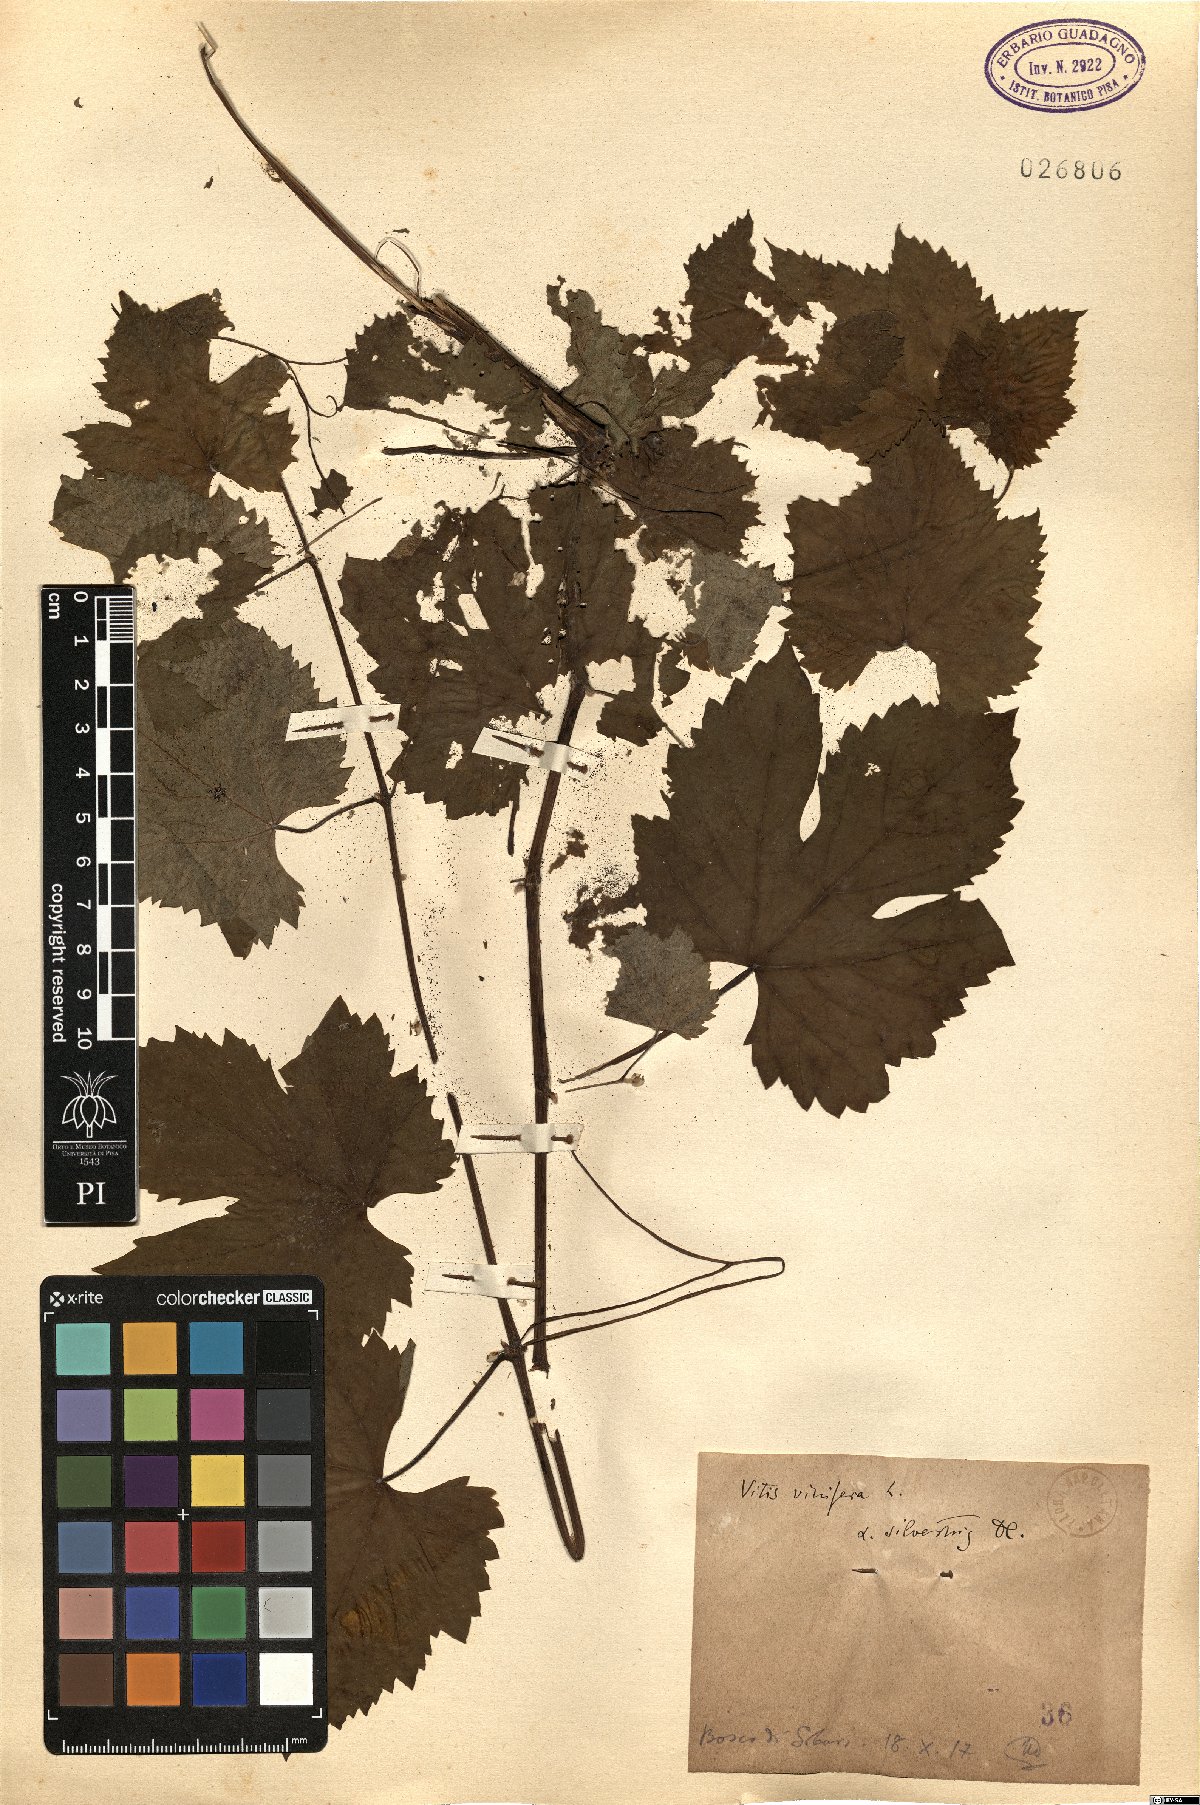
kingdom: Plantae
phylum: Tracheophyta
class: Magnoliopsida
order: Vitales
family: Vitaceae
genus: Vitis
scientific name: Vitis gmelinii
